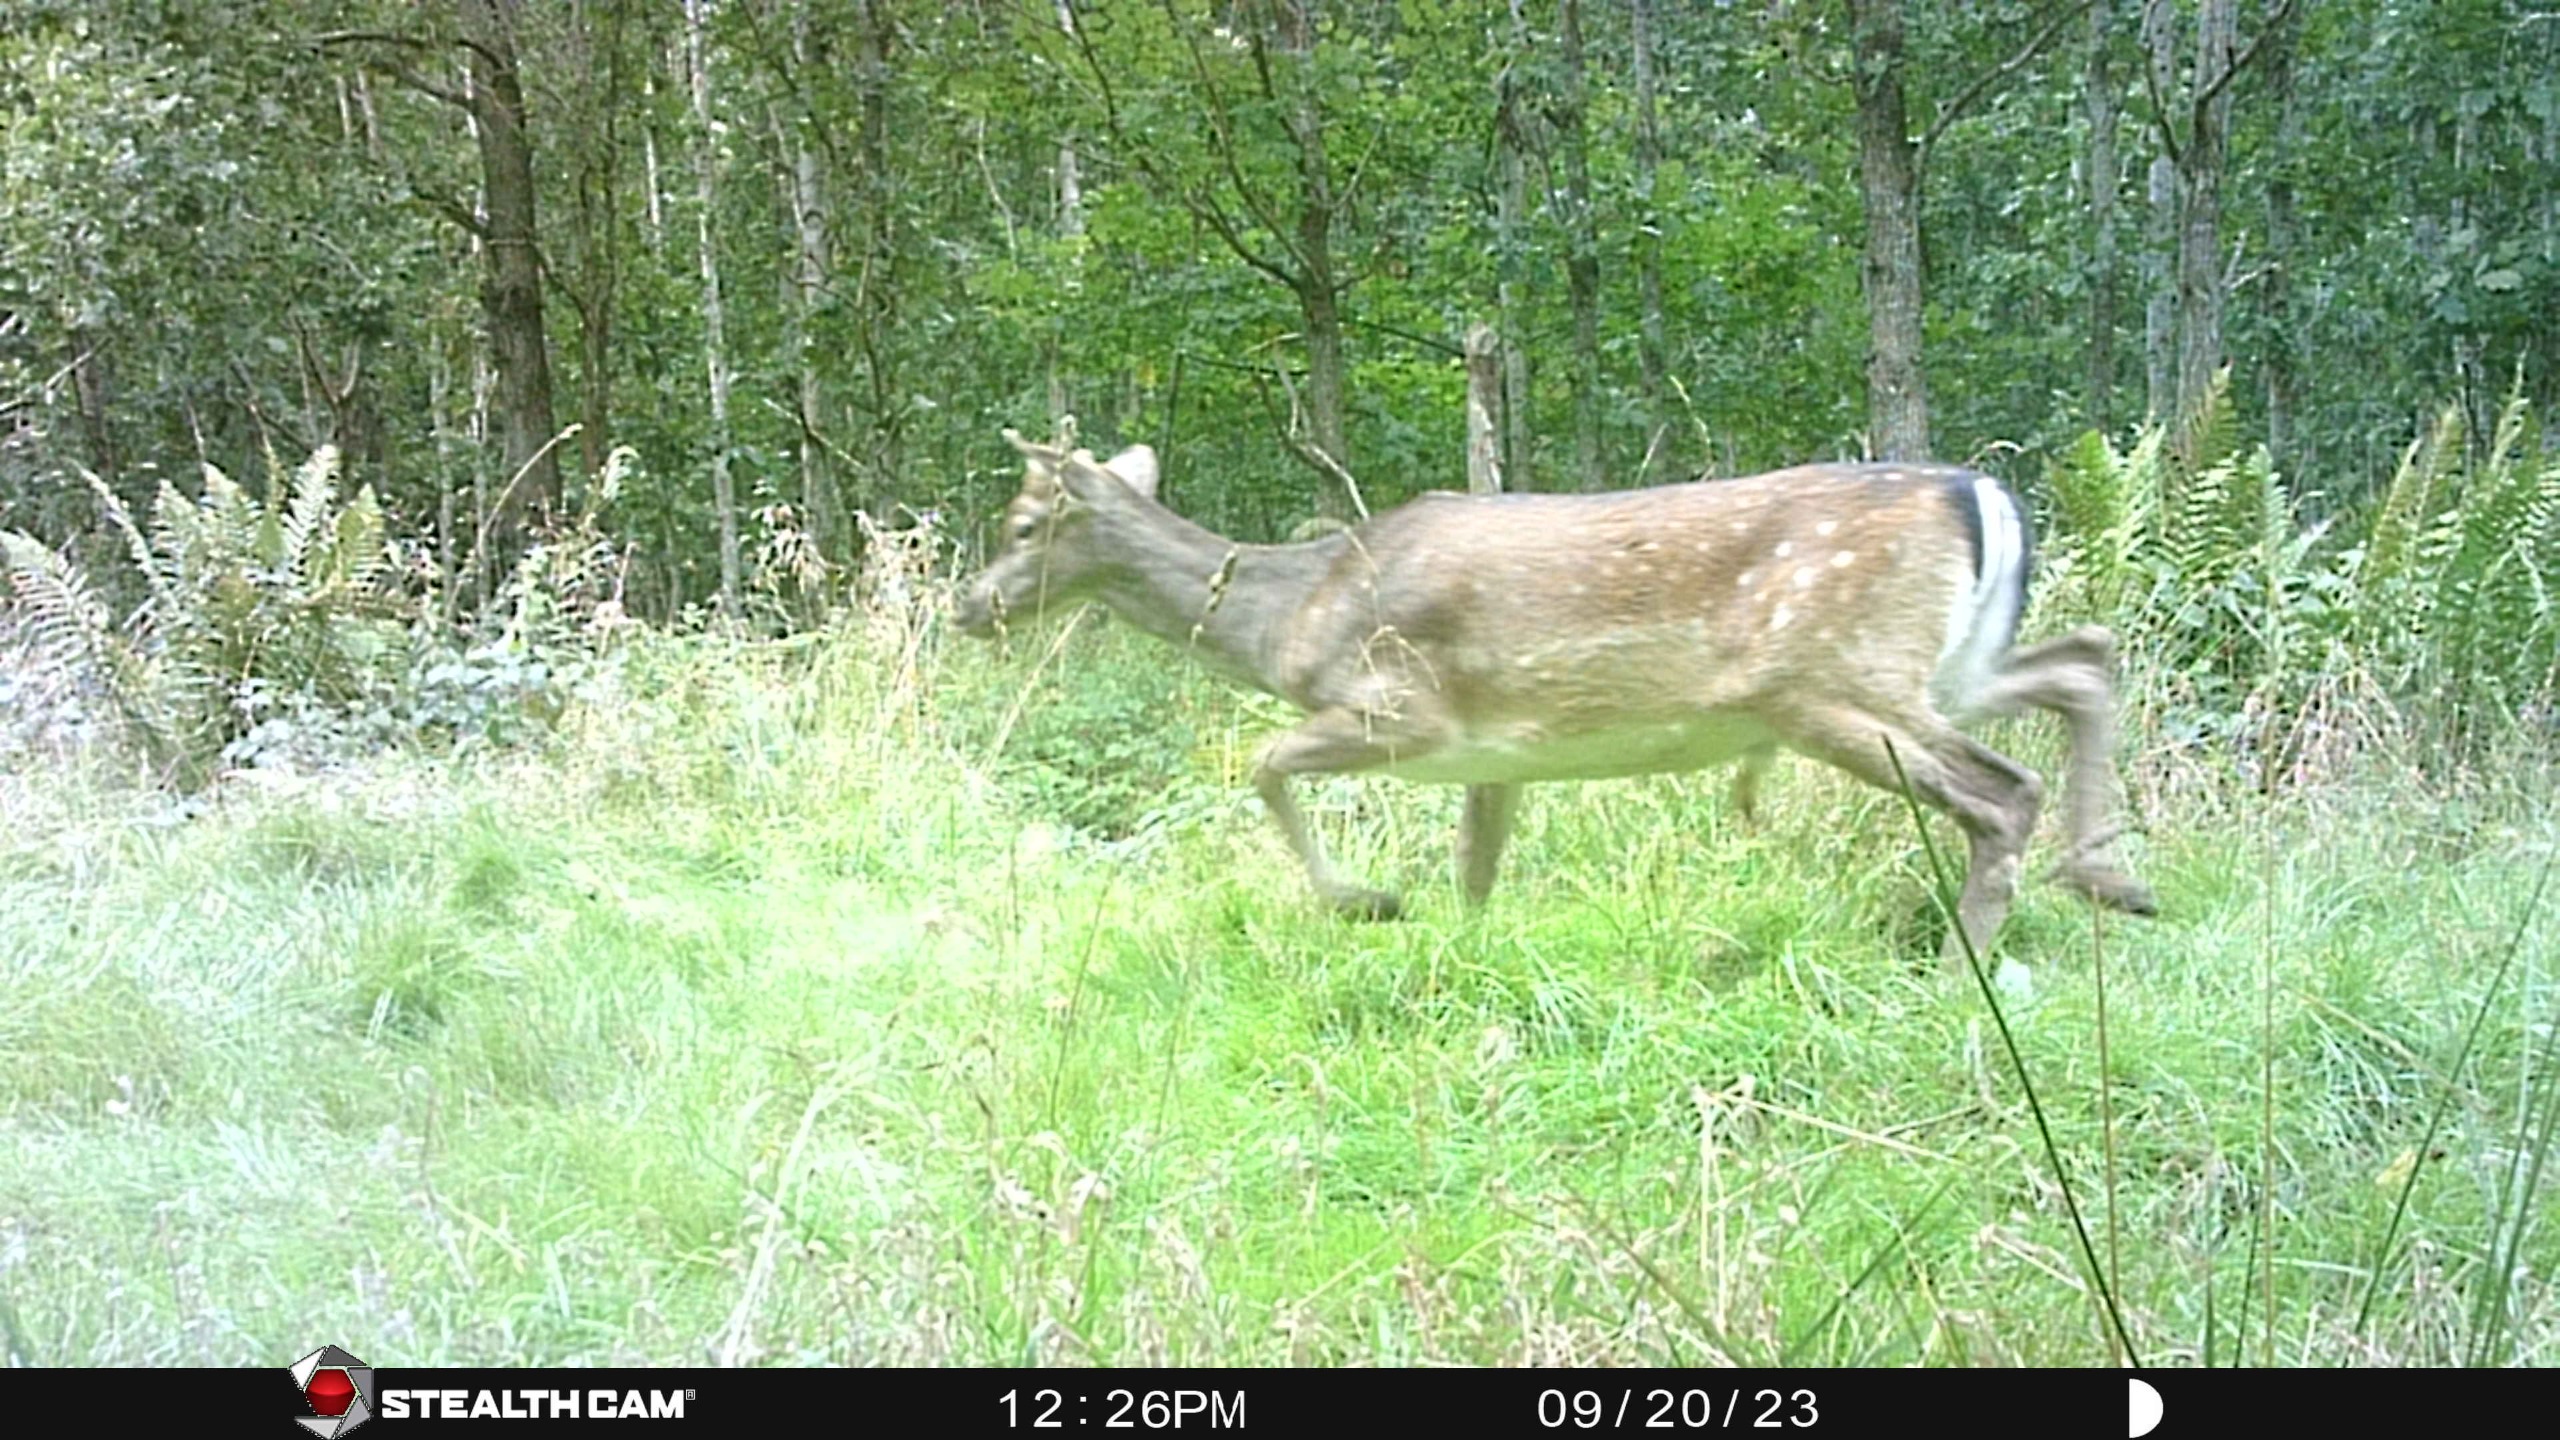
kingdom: Animalia
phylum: Chordata
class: Mammalia
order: Artiodactyla
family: Cervidae
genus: Dama
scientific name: Dama dama
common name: Dådyr
